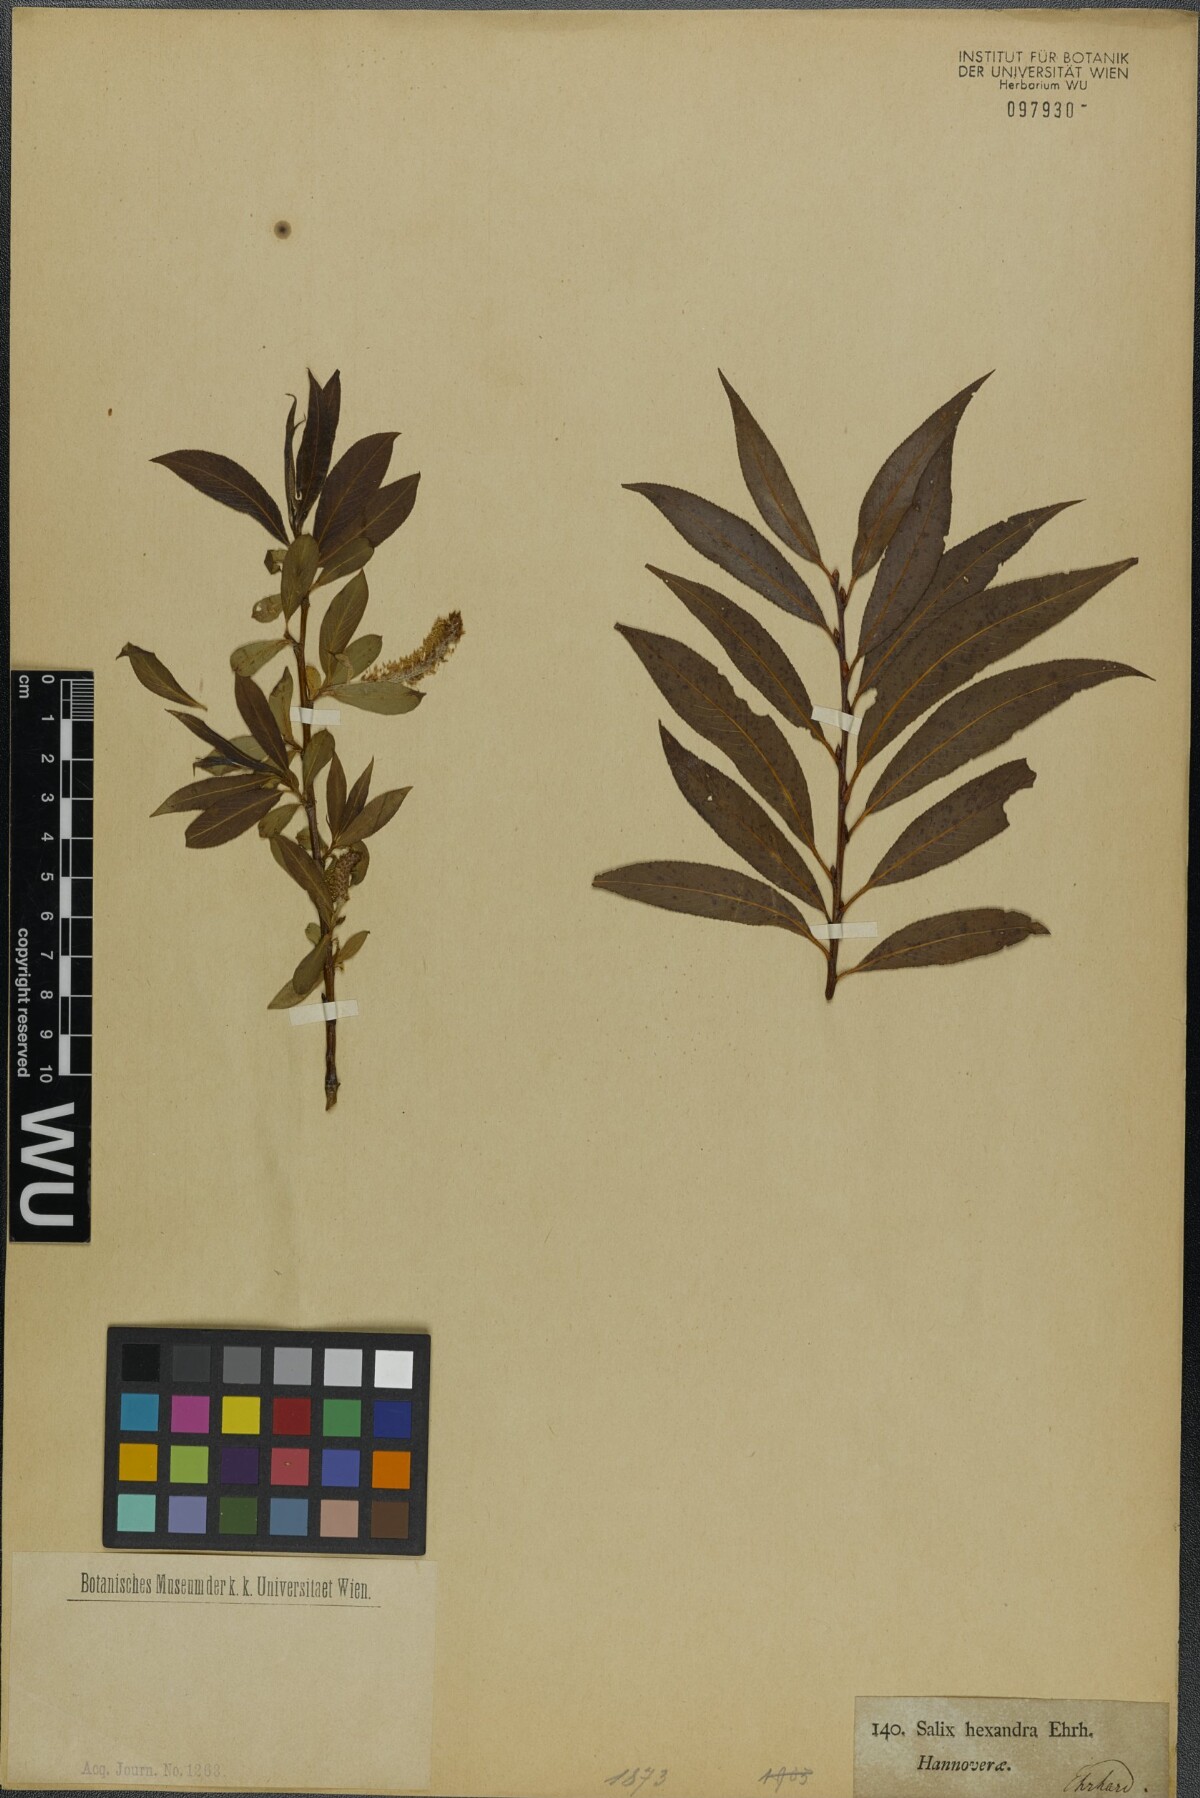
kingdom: Plantae
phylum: Tracheophyta
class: Magnoliopsida
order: Malpighiales
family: Salicaceae
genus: Salix
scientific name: Salix hexandra
